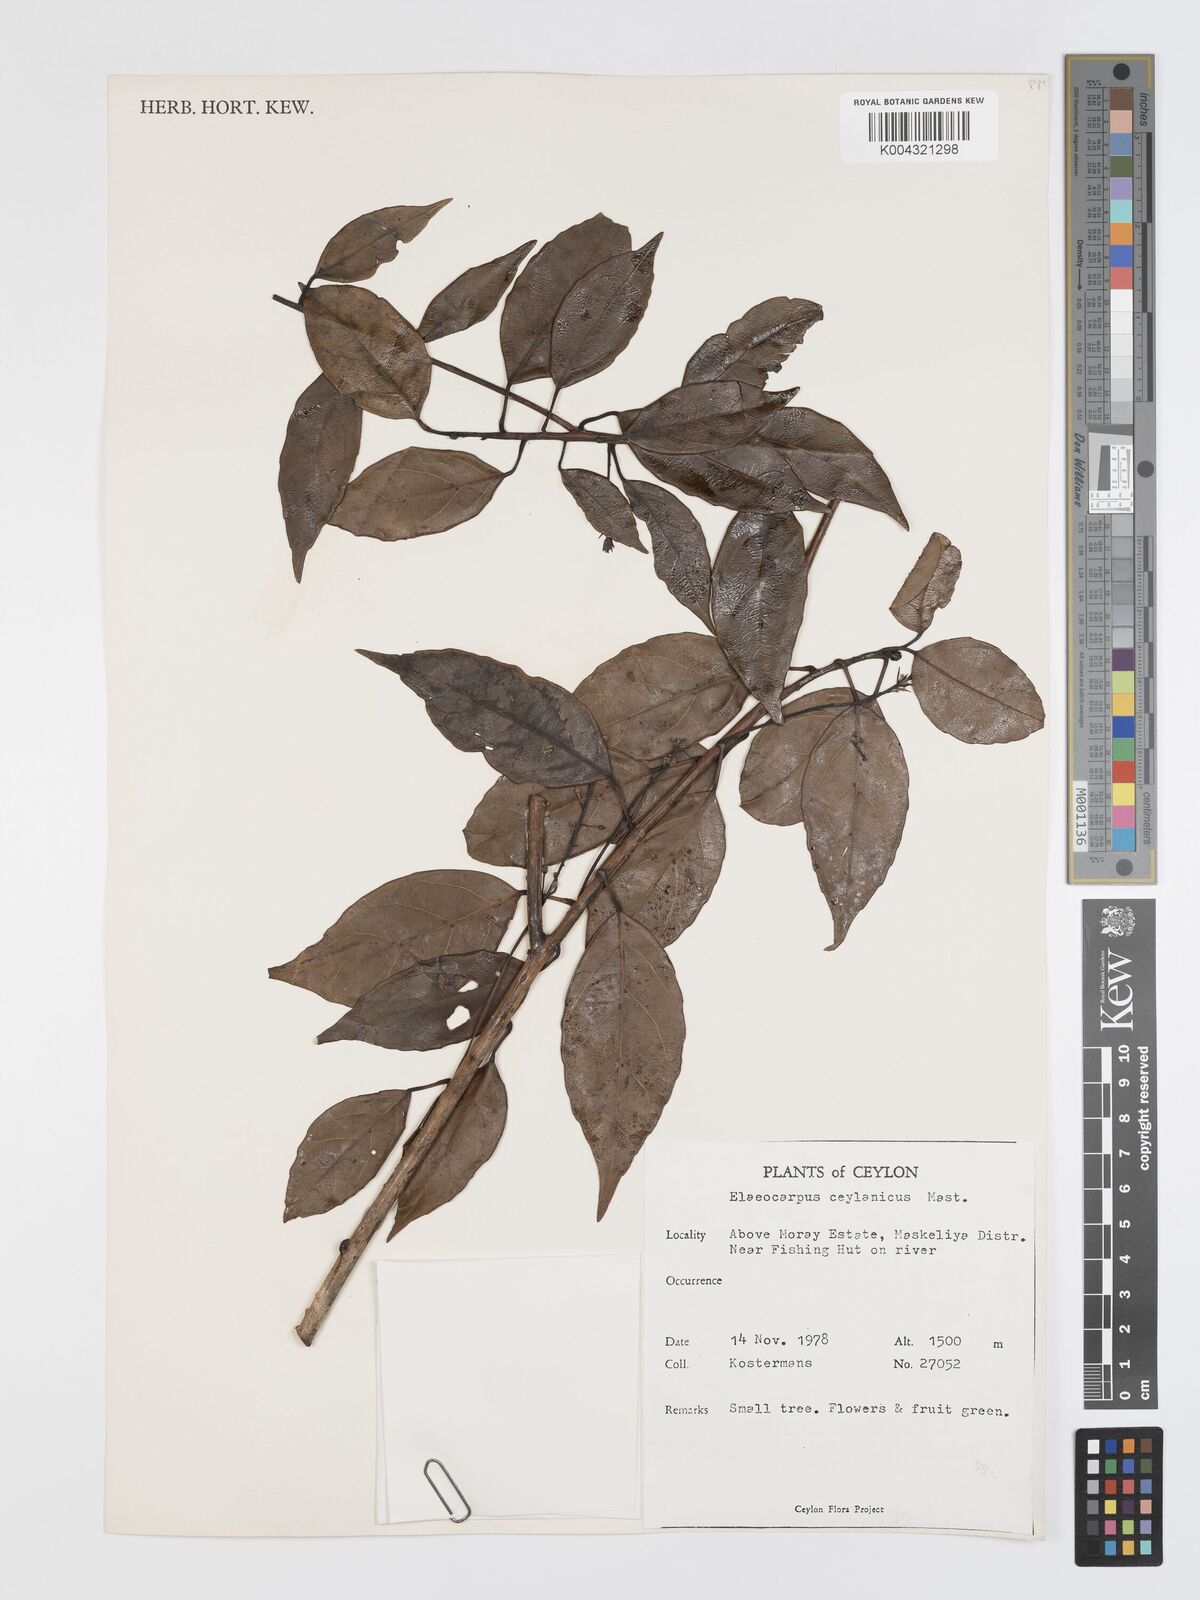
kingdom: Plantae
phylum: Tracheophyta
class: Magnoliopsida
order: Oxalidales
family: Elaeocarpaceae
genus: Elaeocarpus
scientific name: Elaeocarpus ceylanicus
